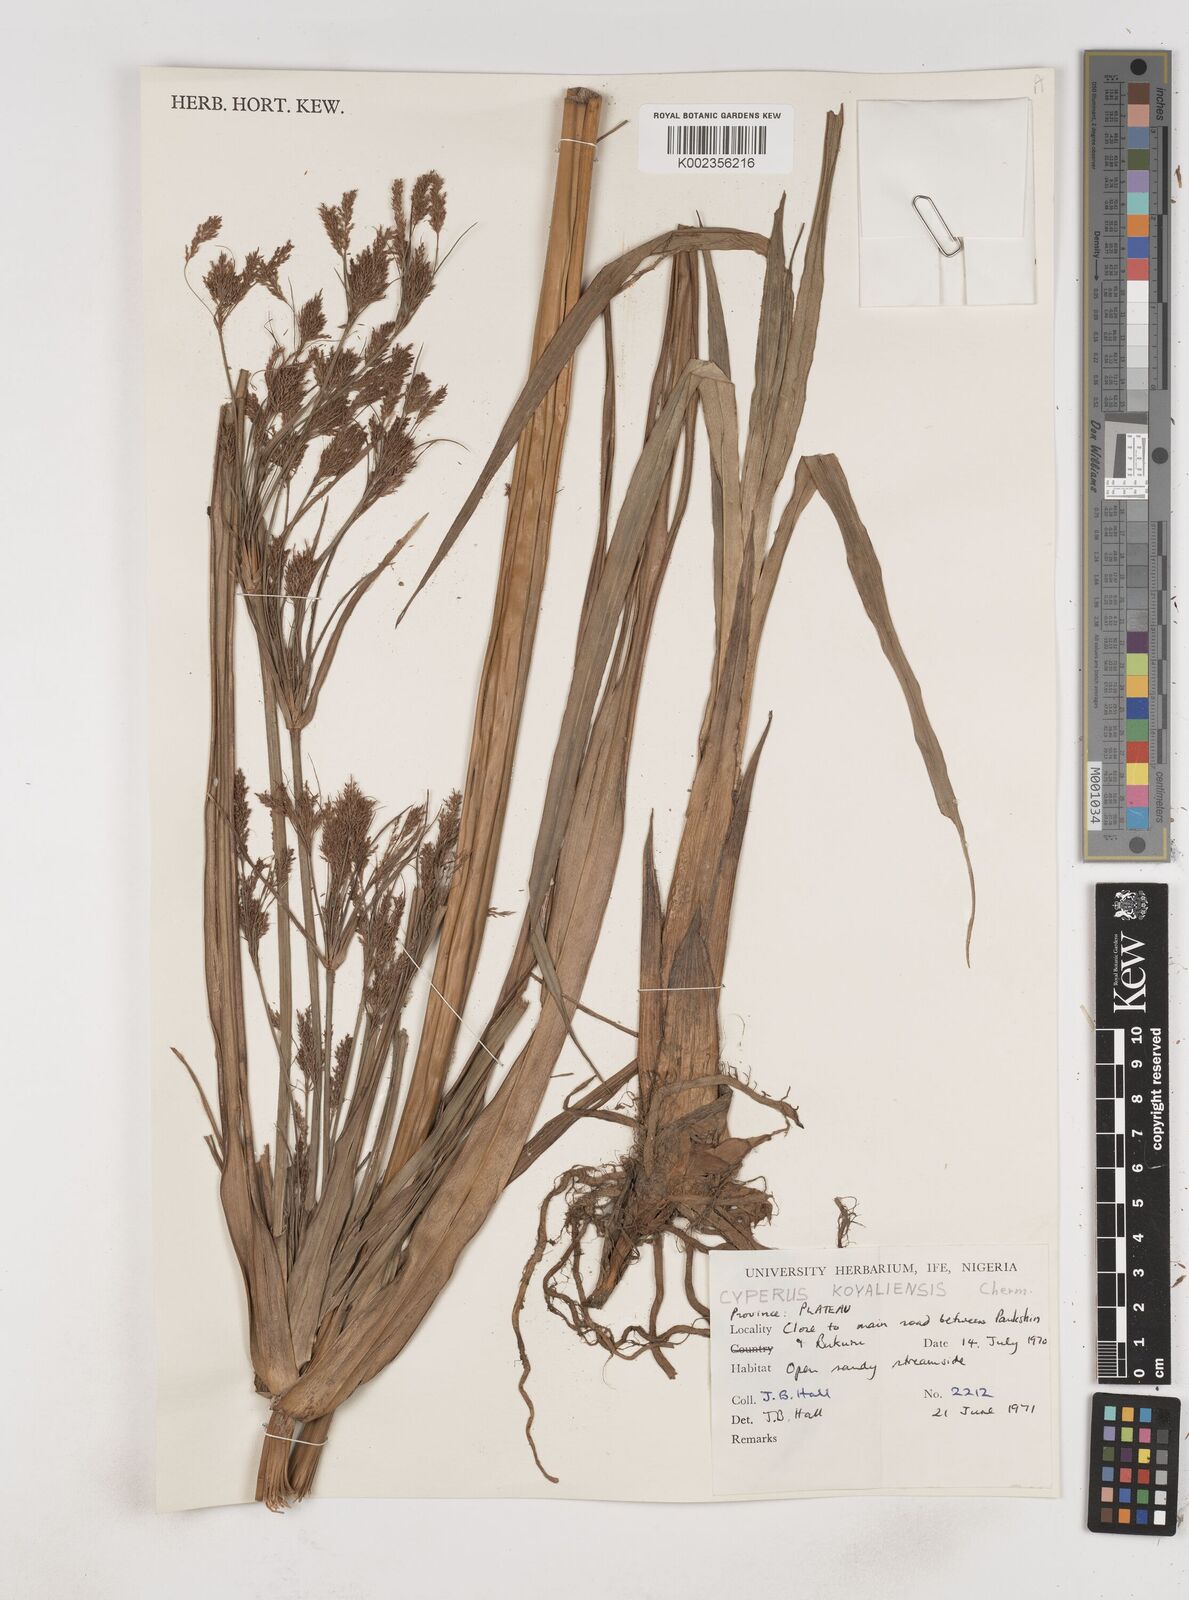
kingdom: Plantae
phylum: Tracheophyta
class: Liliopsida
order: Poales
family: Cyperaceae
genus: Cyperus
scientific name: Cyperus koyaliensis
